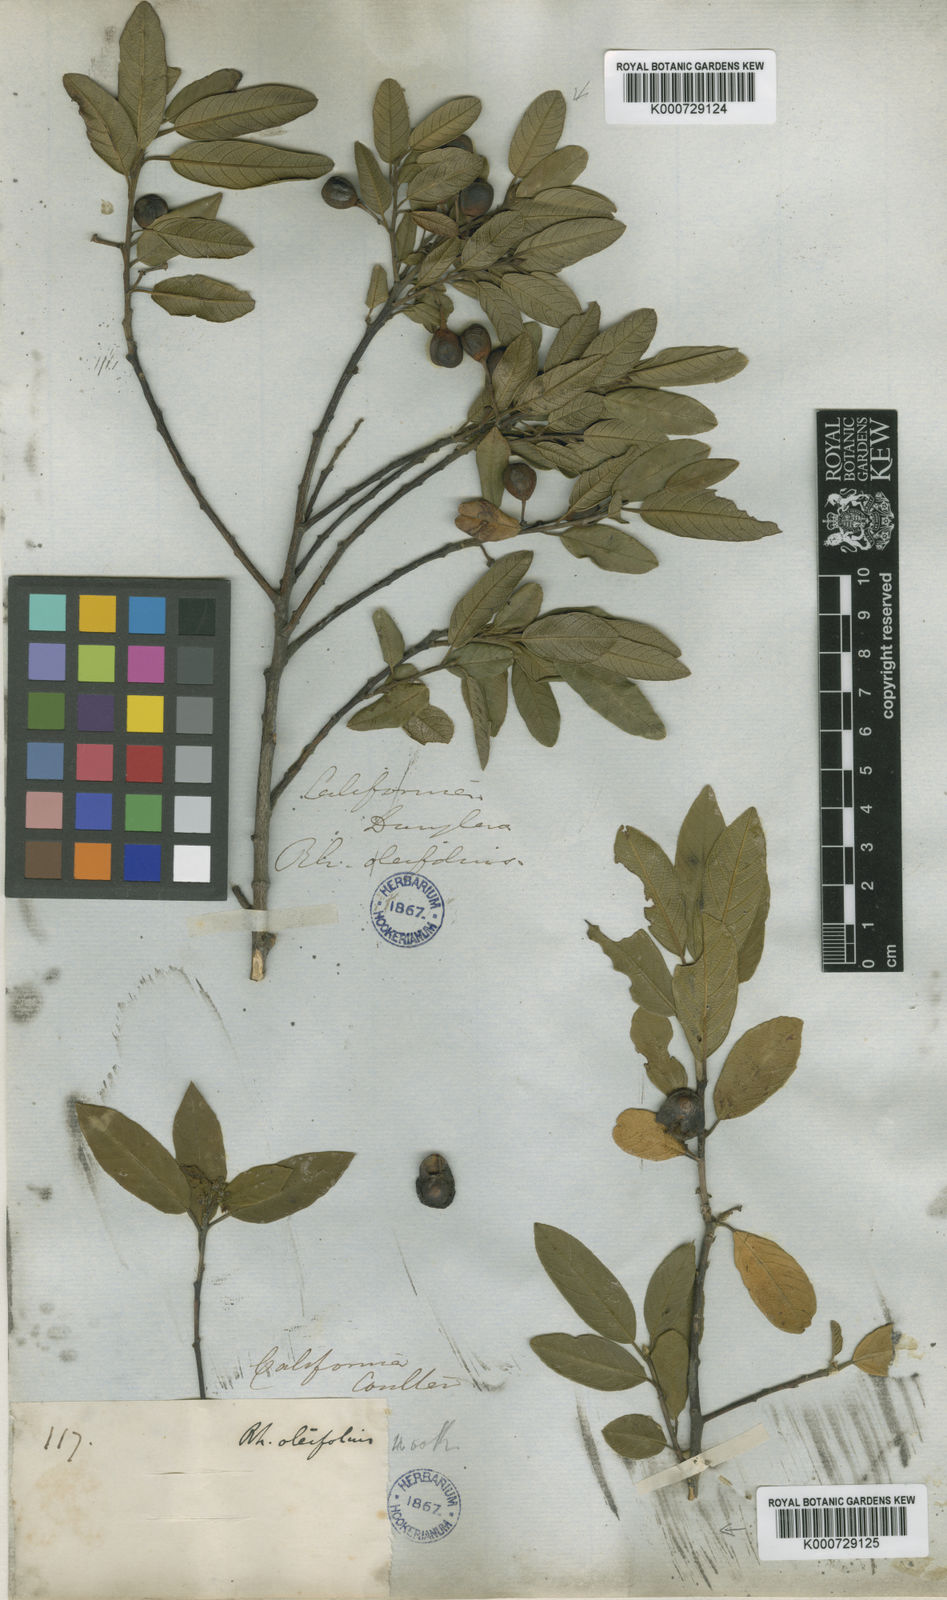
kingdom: Plantae
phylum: Tracheophyta
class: Magnoliopsida
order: Rosales
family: Rhamnaceae
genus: Frangula
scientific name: Frangula rubra
